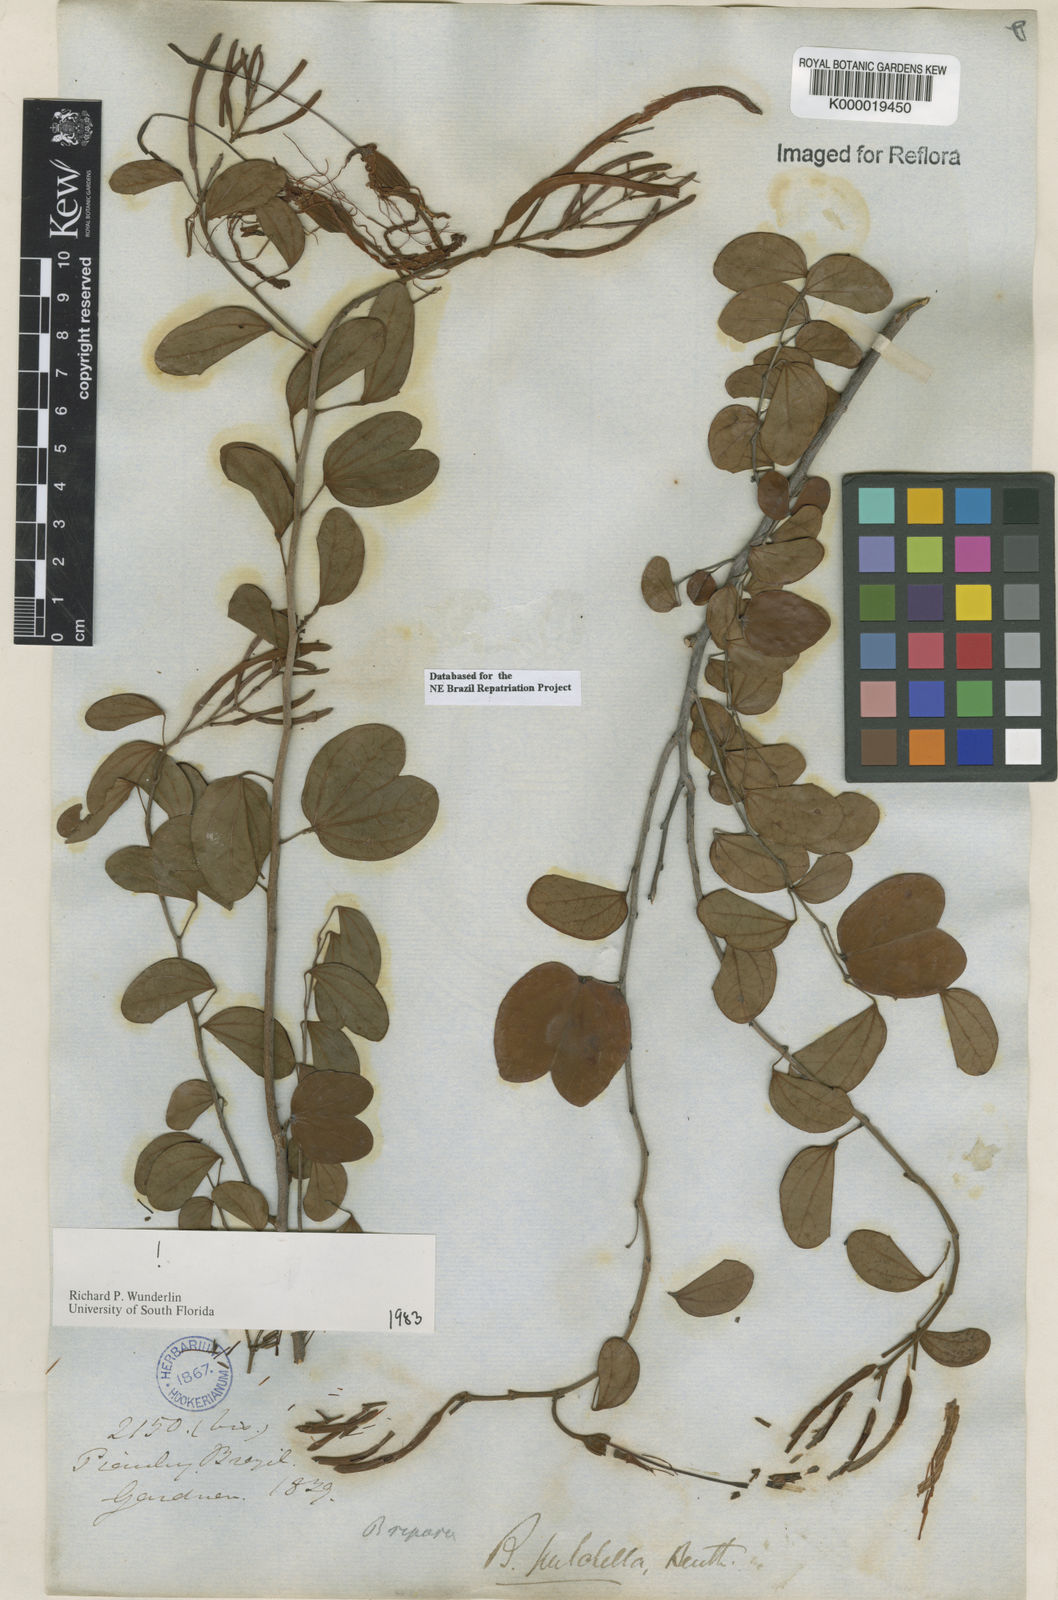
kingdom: Plantae
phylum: Tracheophyta
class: Magnoliopsida
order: Fabales
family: Fabaceae
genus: Bauhinia
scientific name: Bauhinia pulchella
